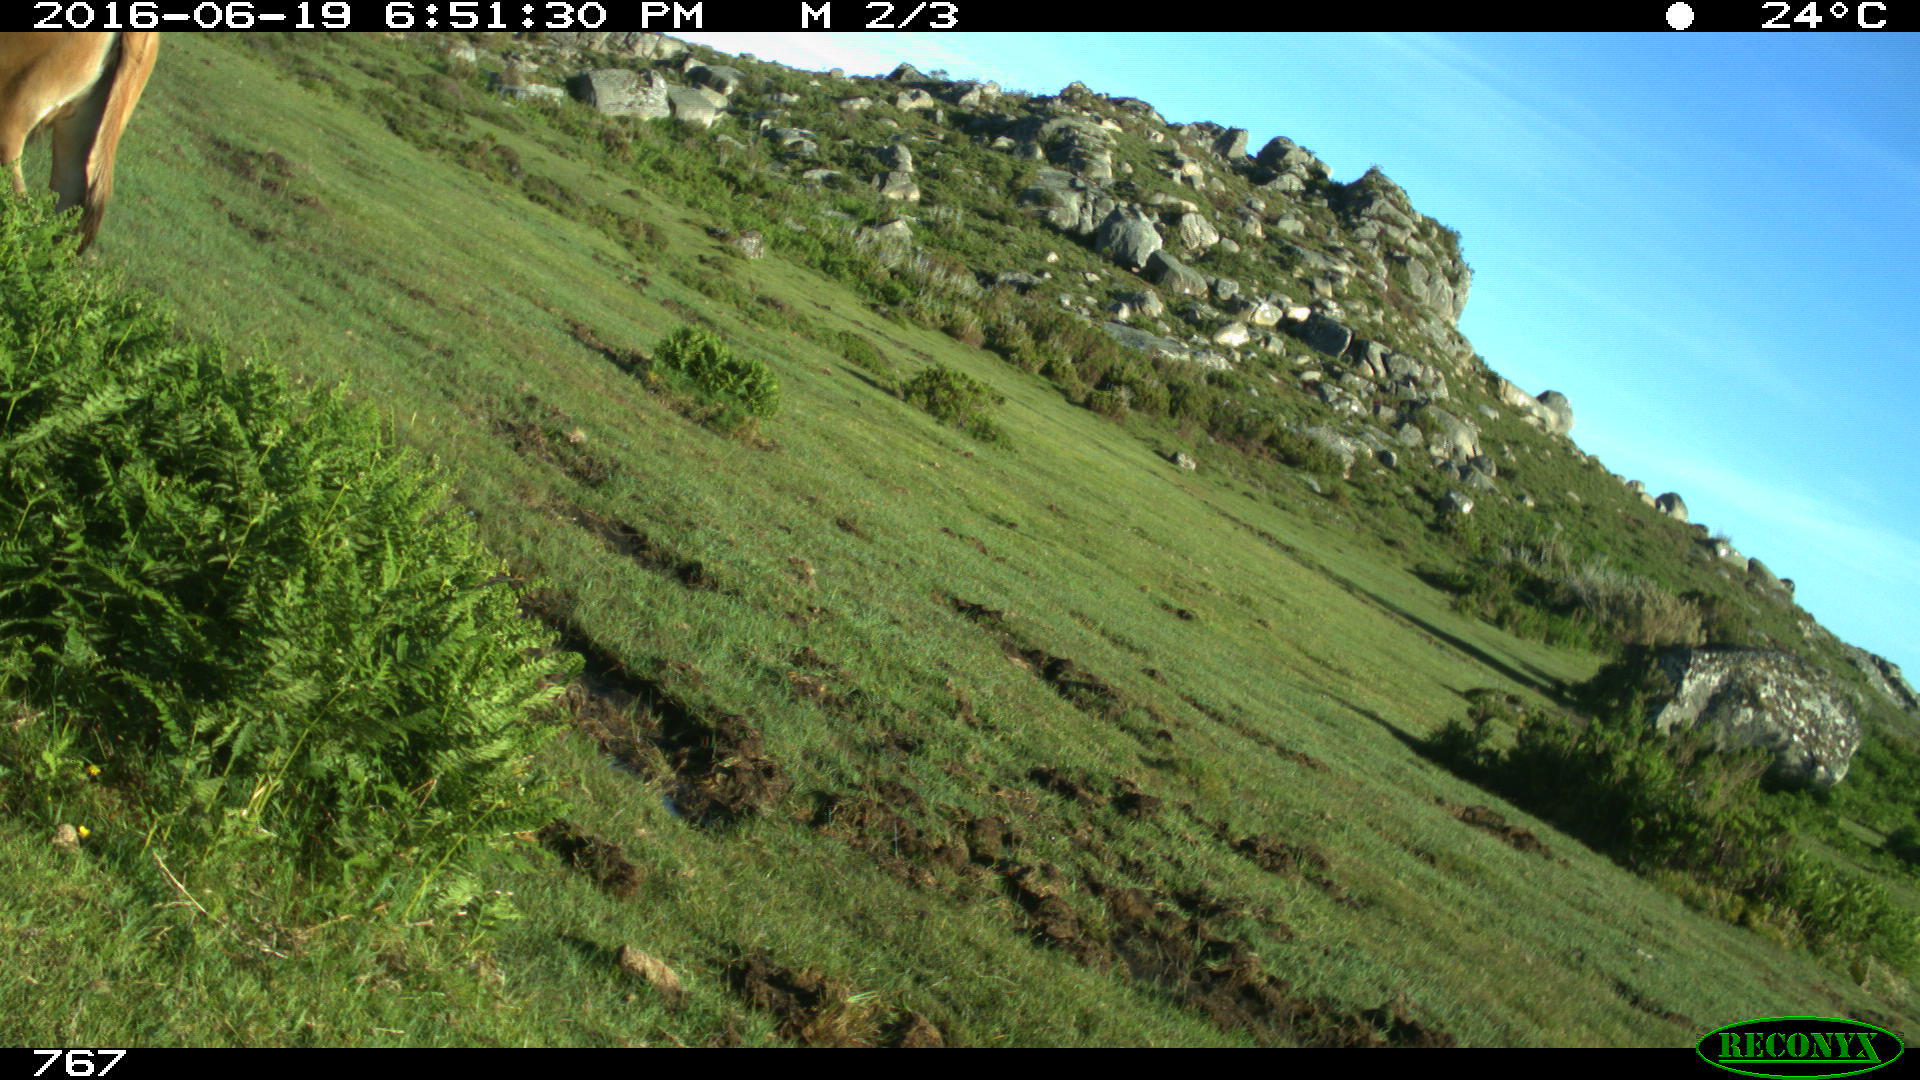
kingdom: Animalia
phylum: Chordata
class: Mammalia
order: Artiodactyla
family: Bovidae
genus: Bos
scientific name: Bos taurus
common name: Domesticated cattle
